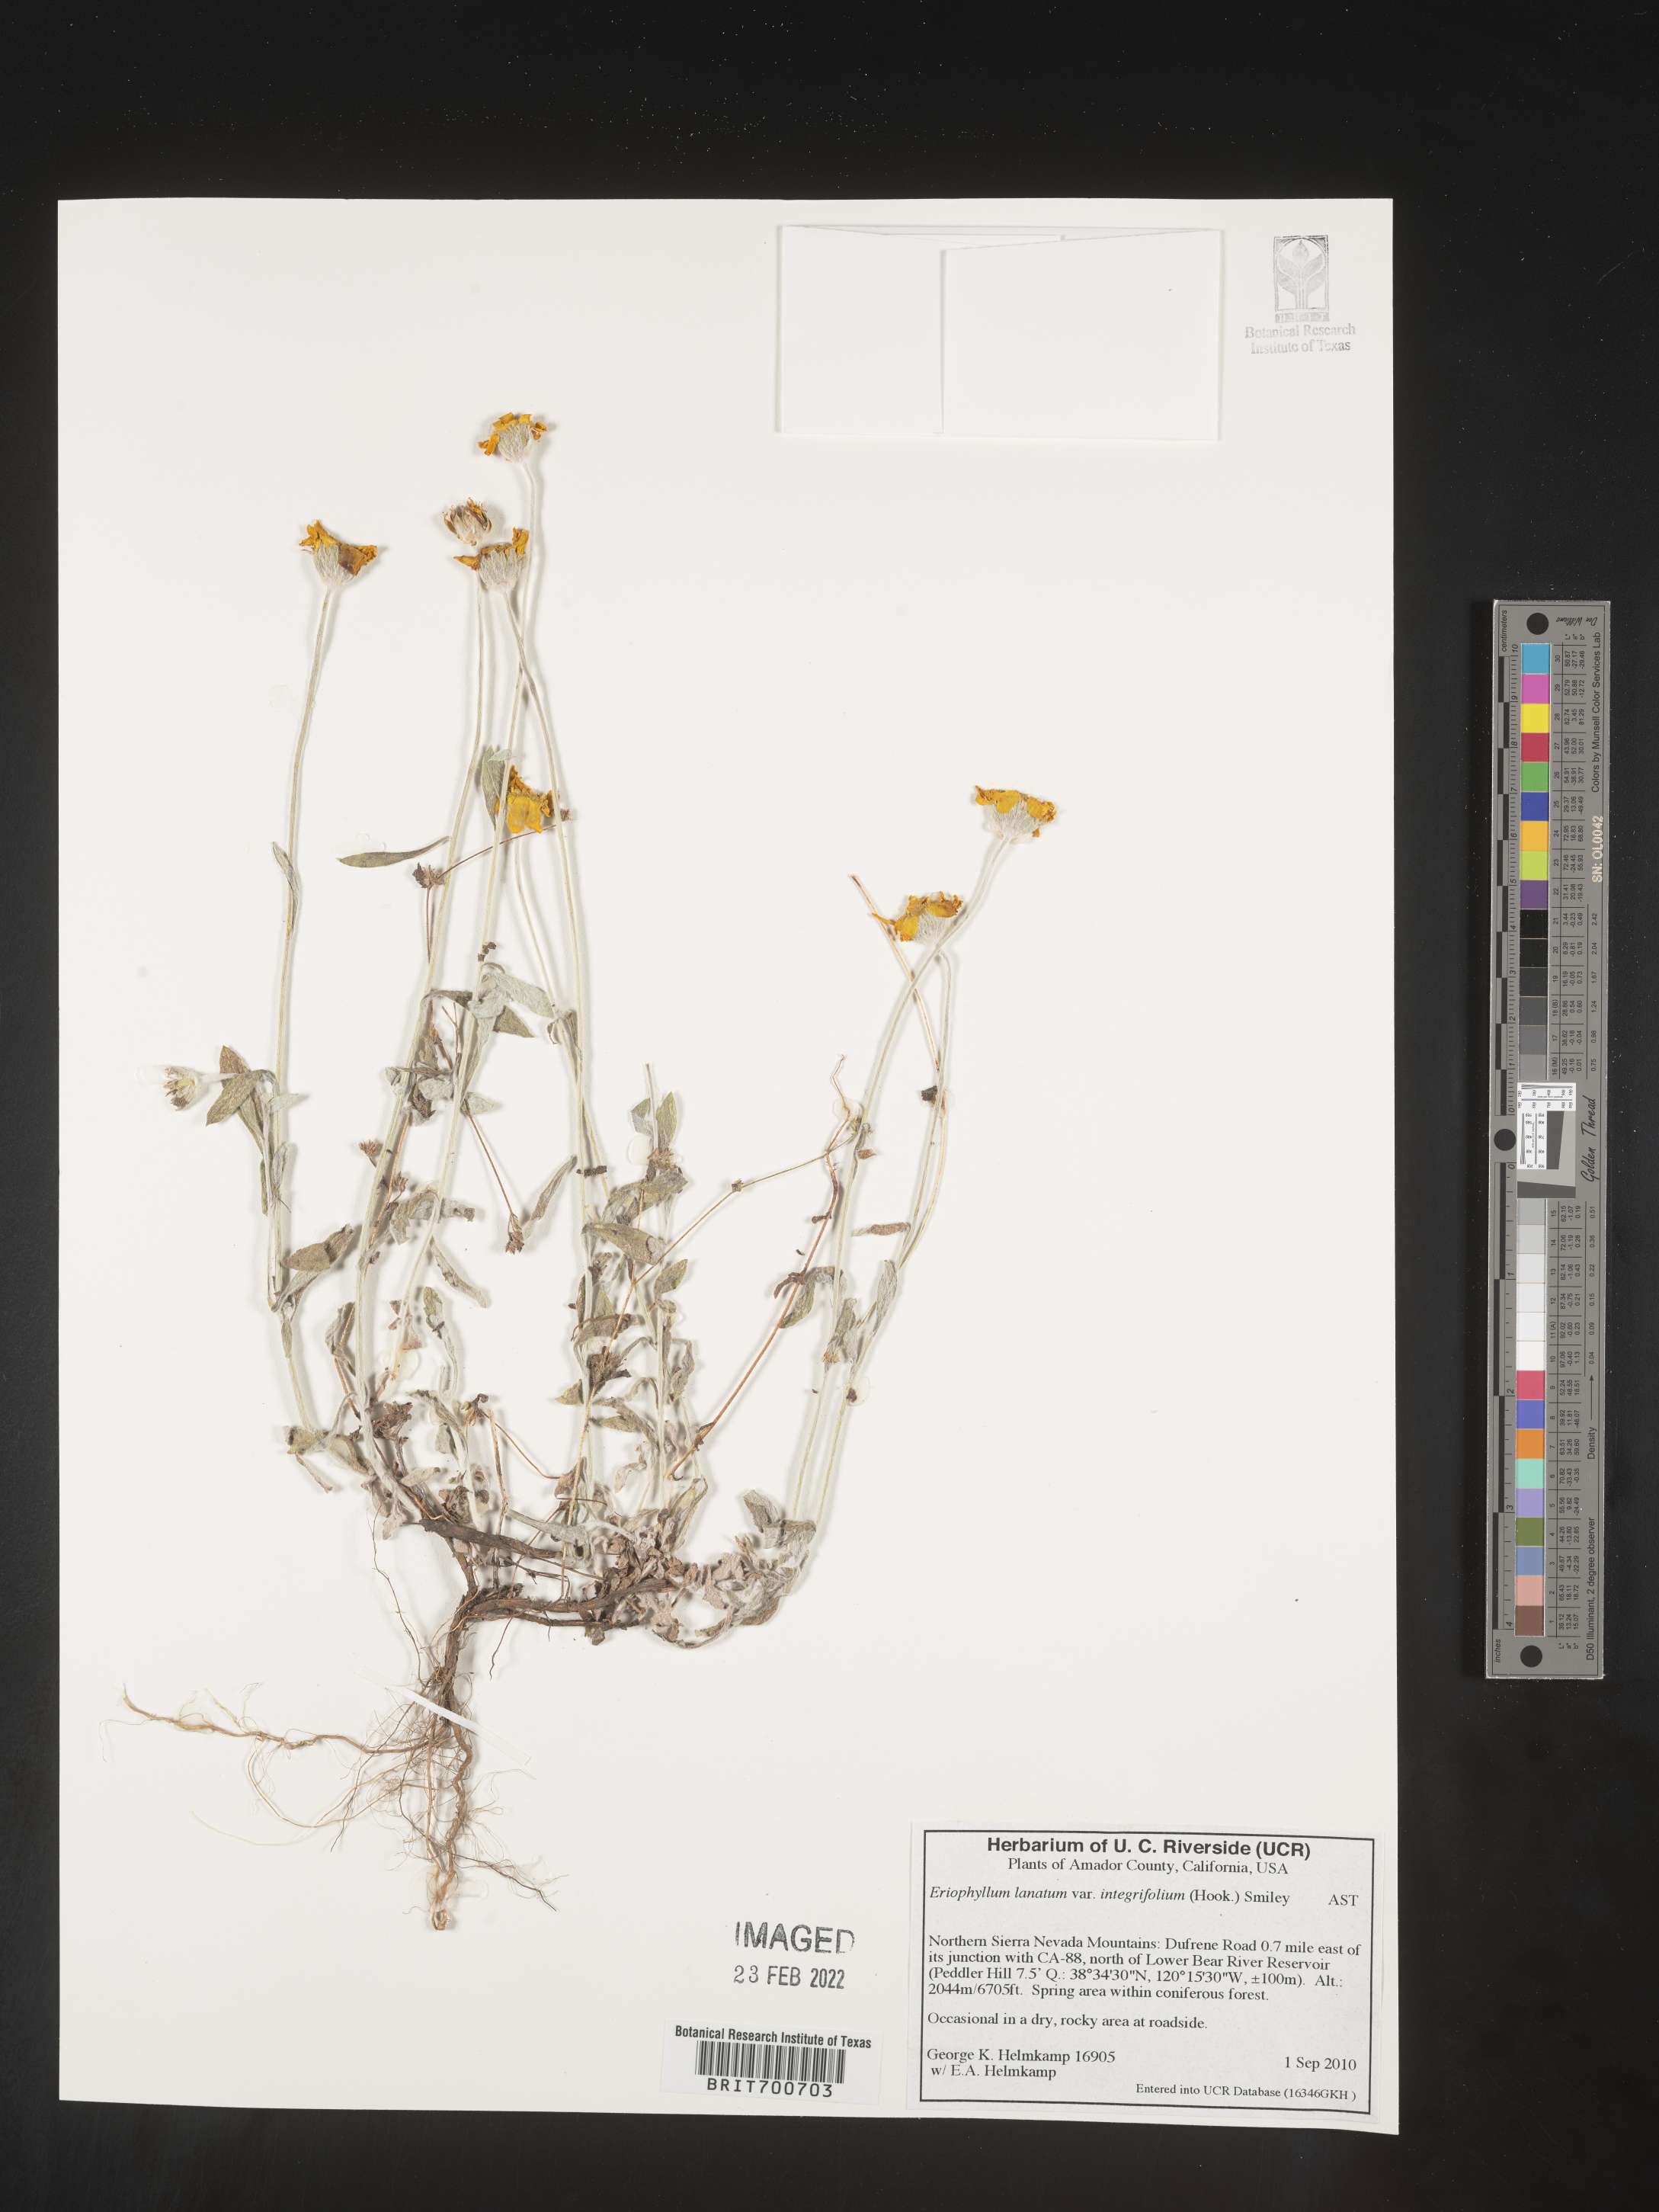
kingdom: Plantae
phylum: Tracheophyta
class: Magnoliopsida
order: Asterales
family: Asteraceae
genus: Eriophyllum
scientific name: Eriophyllum lanatum
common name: Common woolly-sunflower
